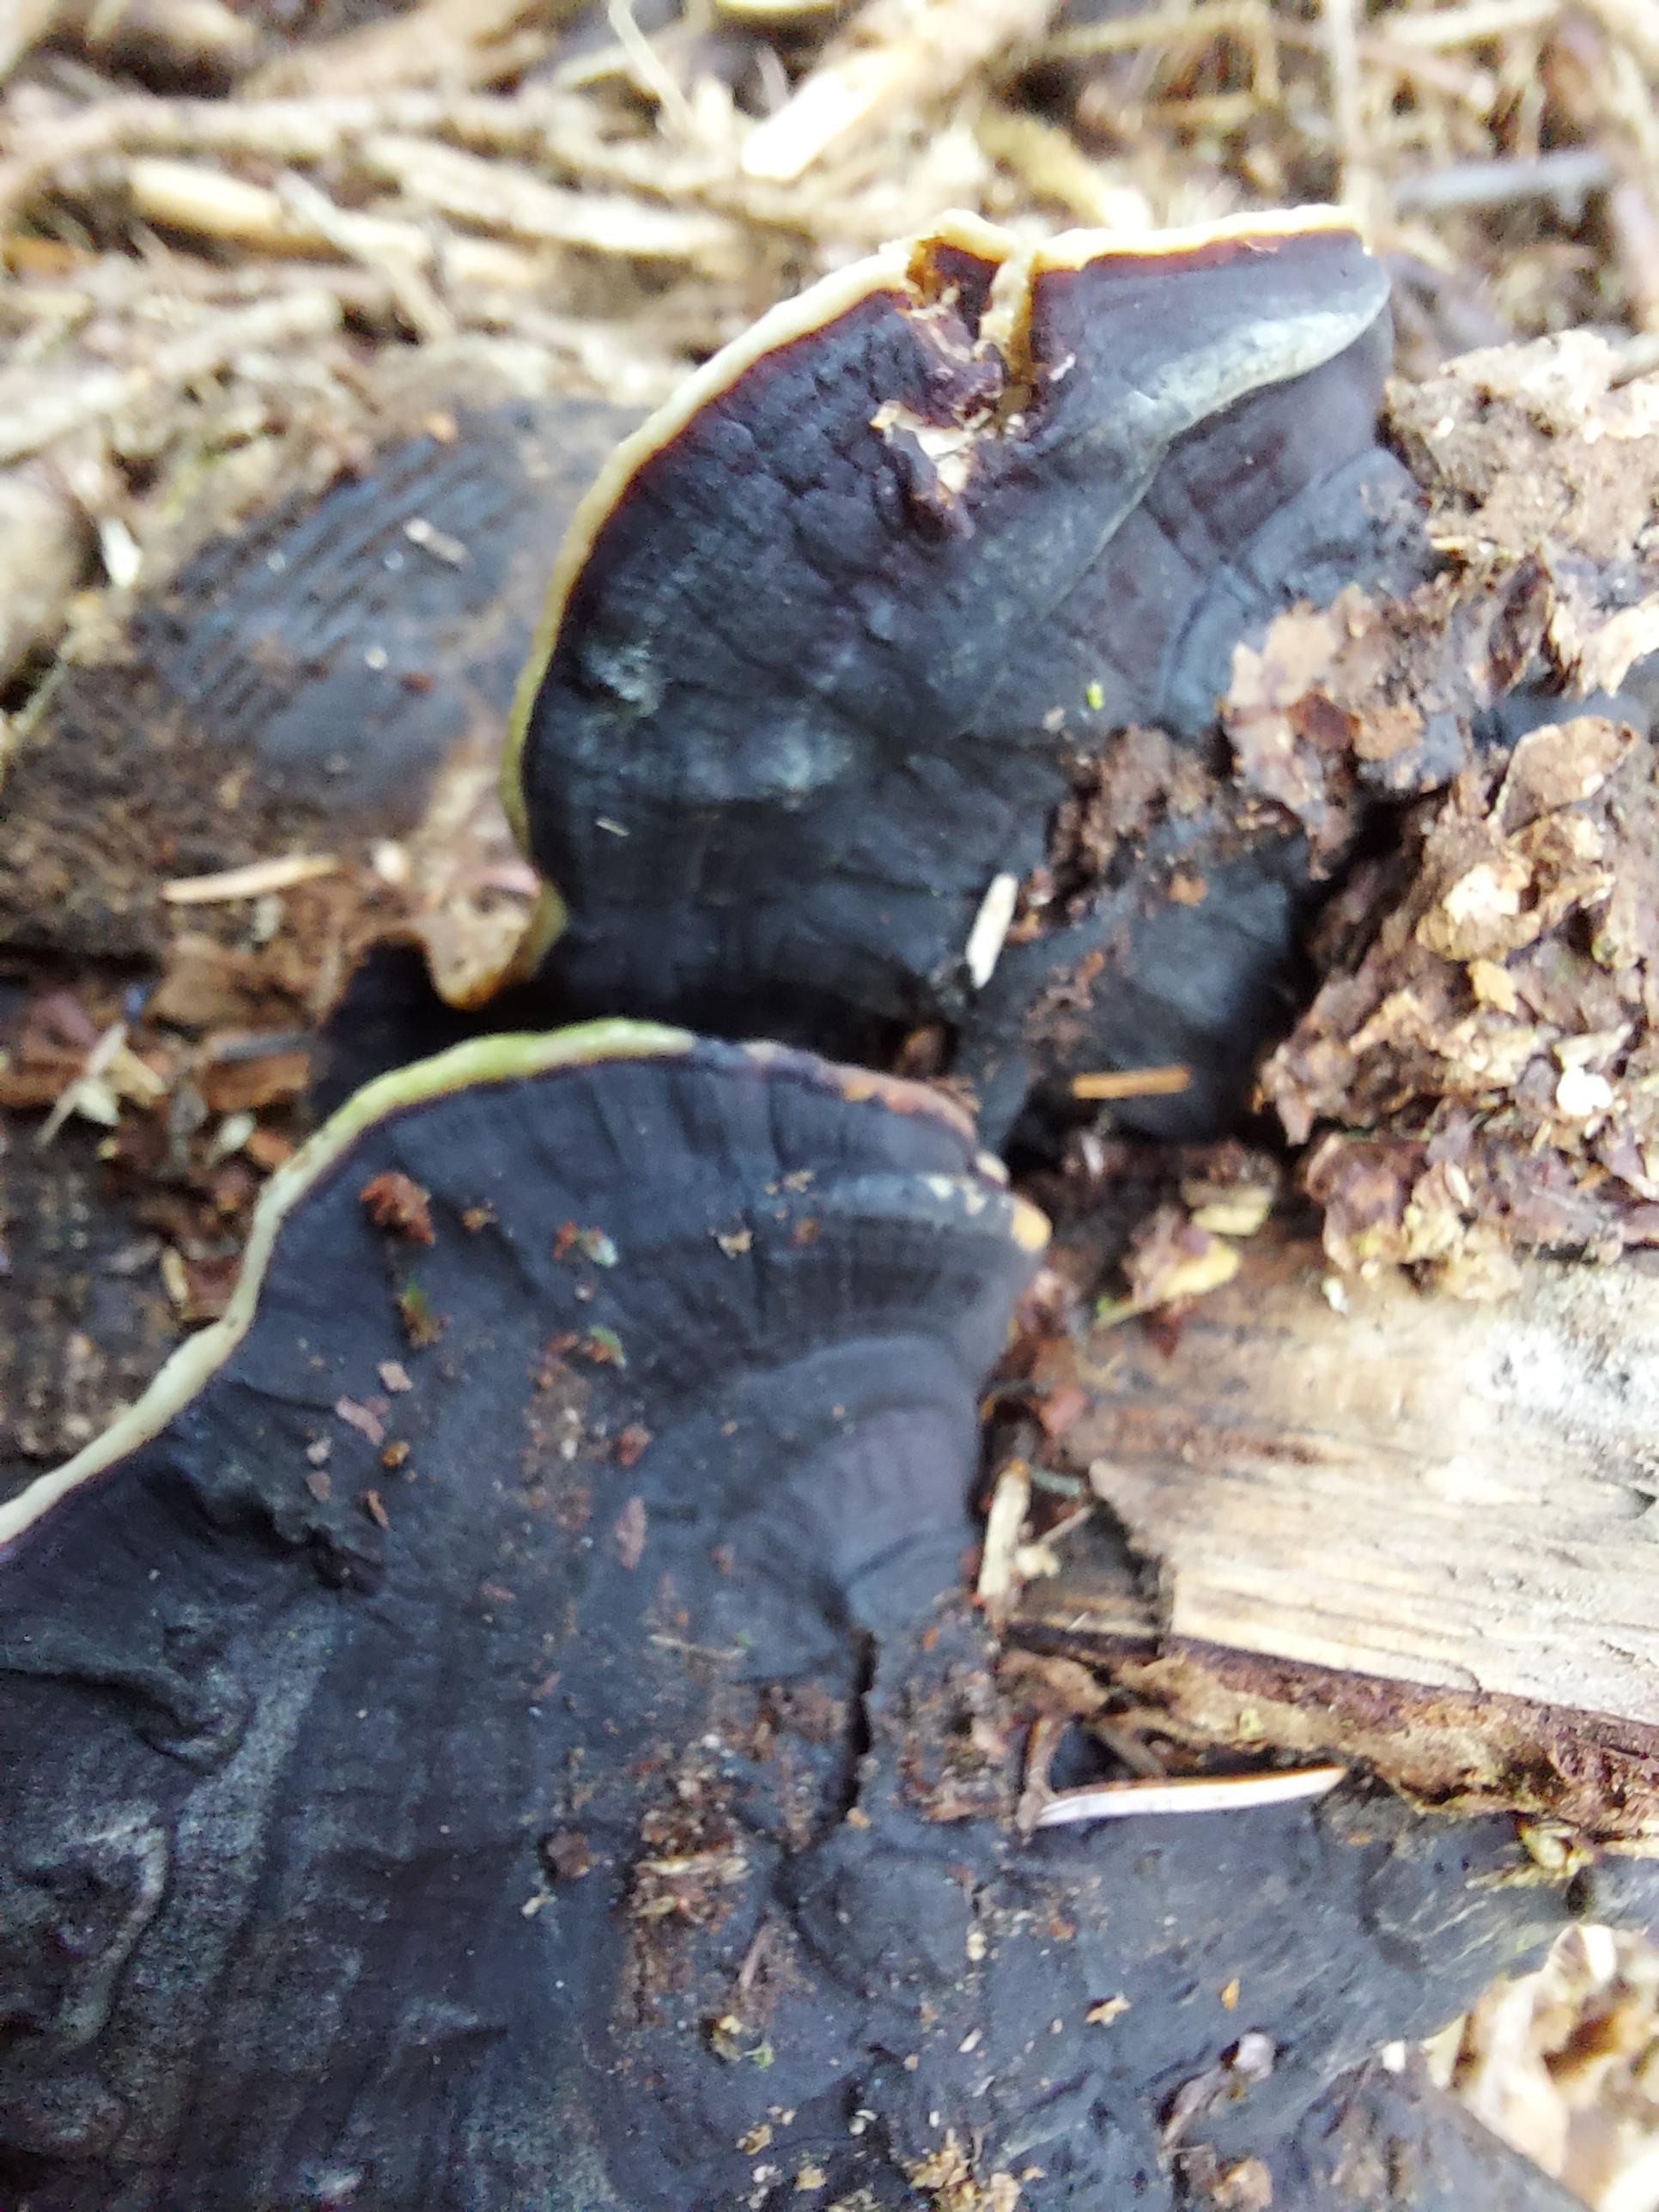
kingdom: Fungi
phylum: Basidiomycota
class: Agaricomycetes
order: Russulales
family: Bondarzewiaceae
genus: Heterobasidion
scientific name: Heterobasidion
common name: rodfordærver
